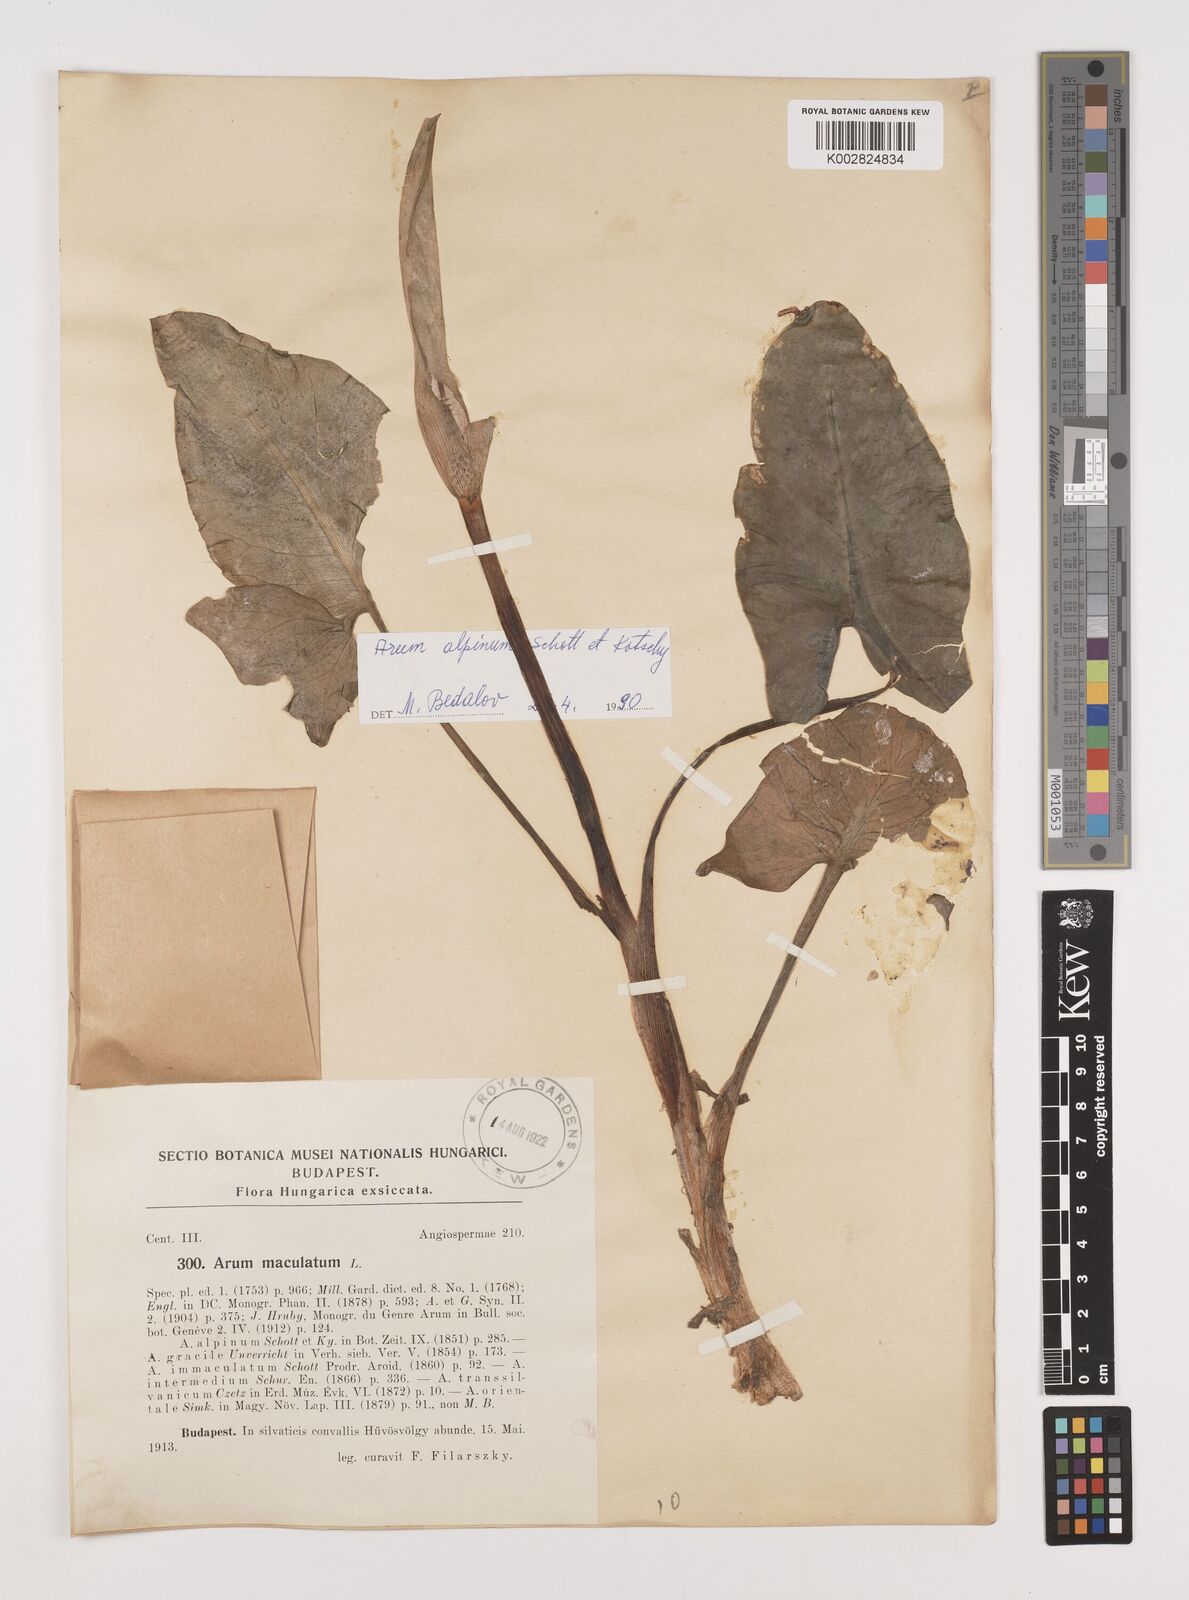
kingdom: Plantae
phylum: Tracheophyta
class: Liliopsida
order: Alismatales
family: Araceae
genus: Arum
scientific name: Arum maculatum
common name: Lords-and-ladies
